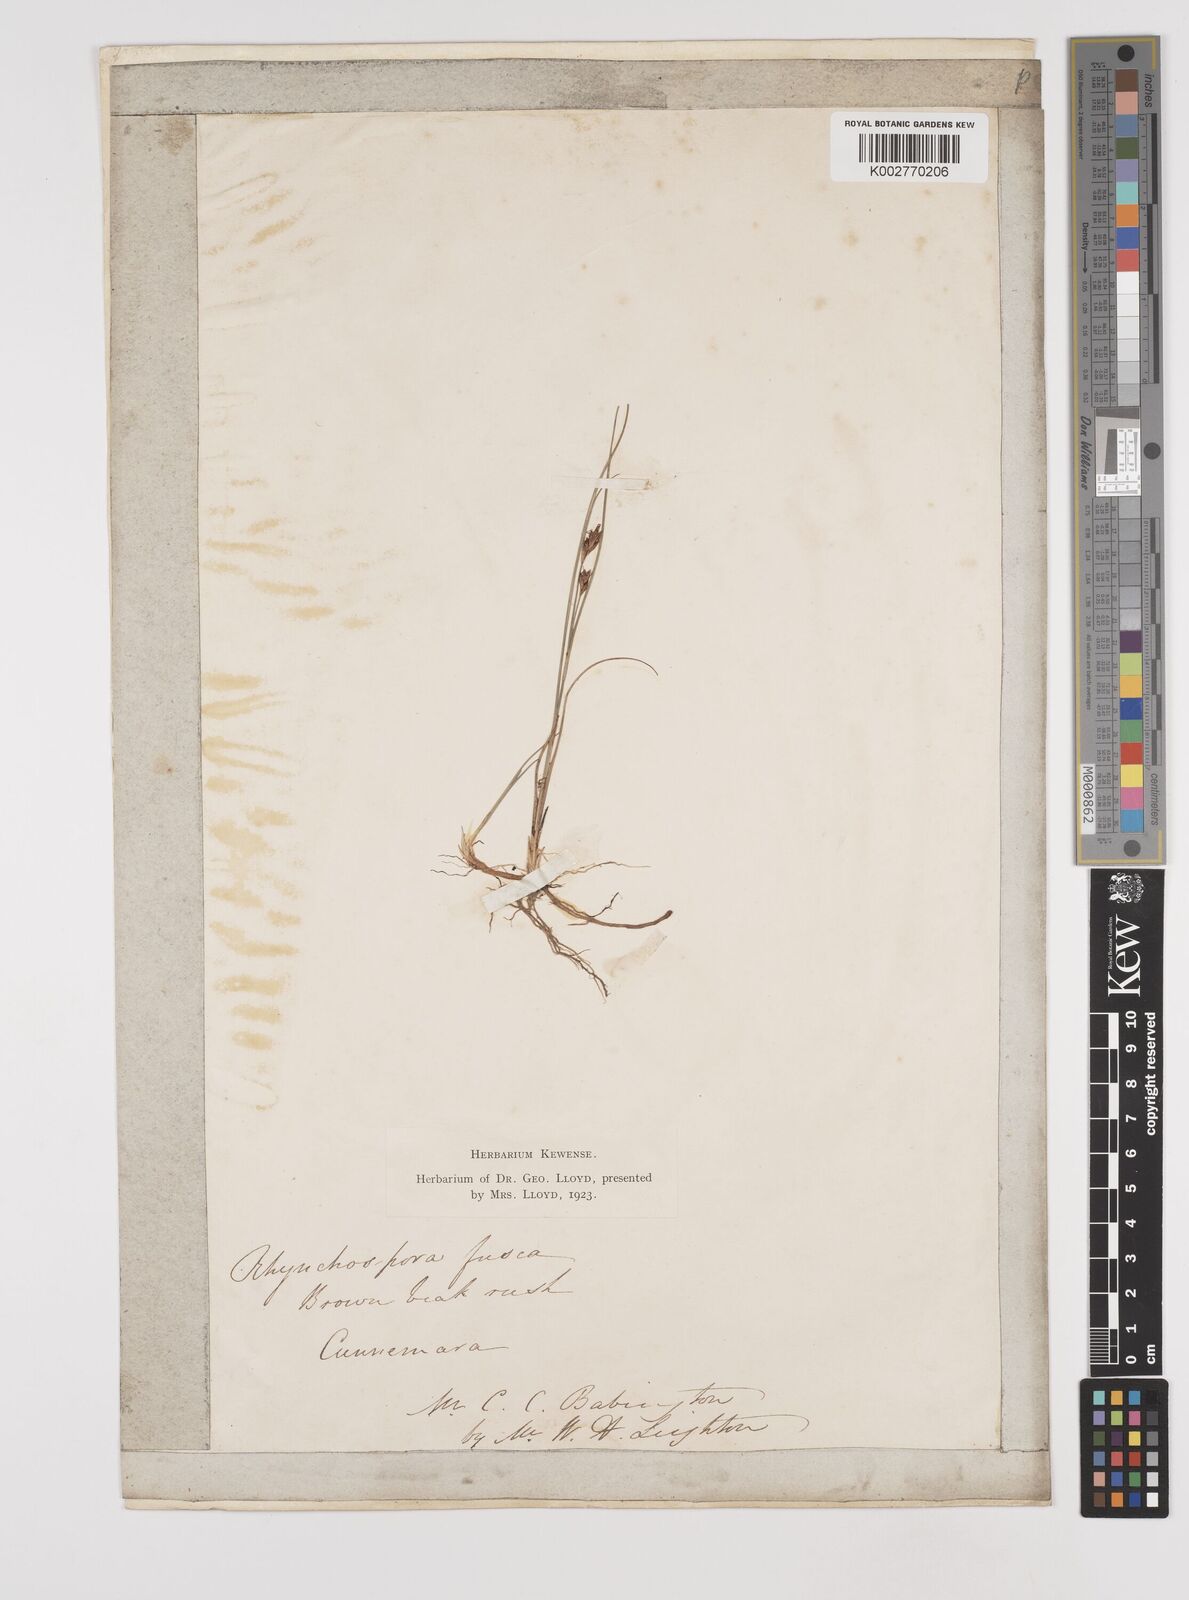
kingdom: Plantae
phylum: Tracheophyta
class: Liliopsida
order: Poales
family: Cyperaceae
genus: Rhynchospora
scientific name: Rhynchospora fusca
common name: Brown beak-sedge
